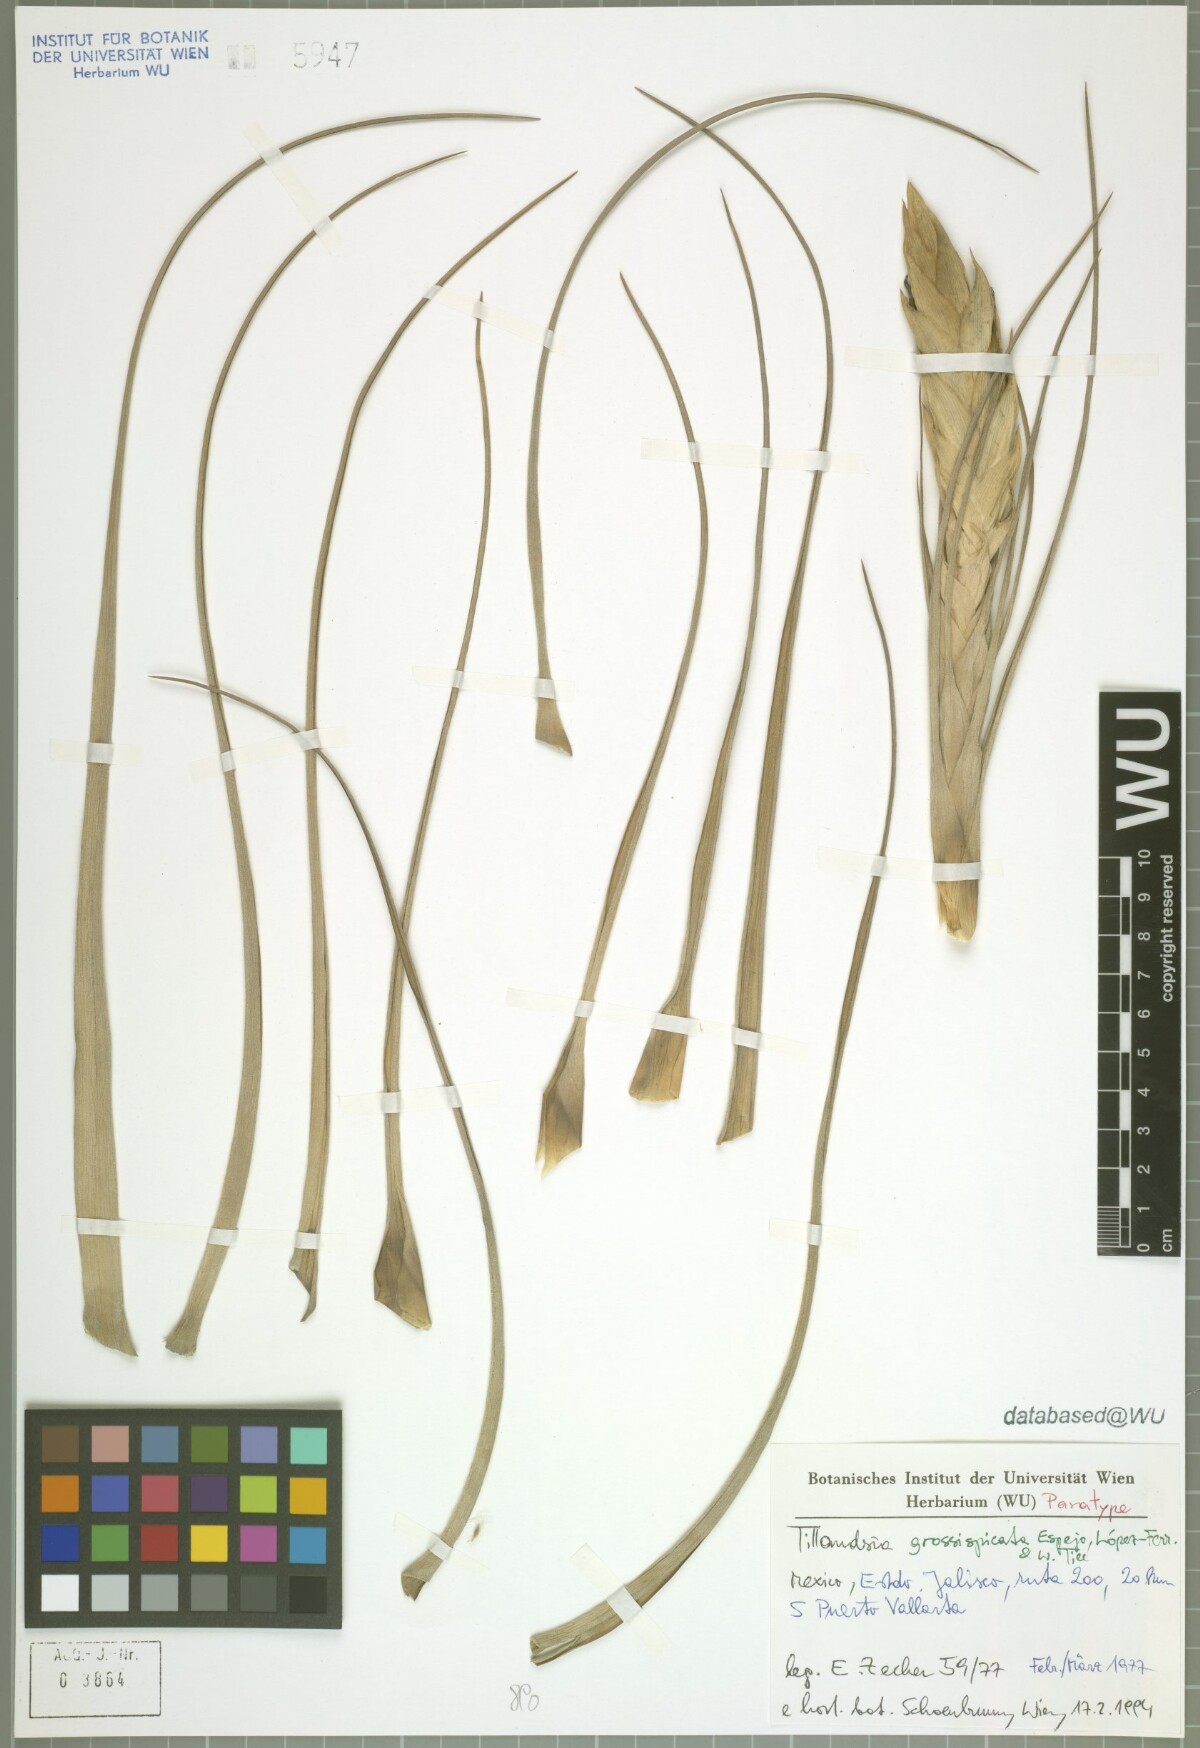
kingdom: Plantae
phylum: Tracheophyta
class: Liliopsida
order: Poales
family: Bromeliaceae
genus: Tillandsia
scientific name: Tillandsia grossispicata
